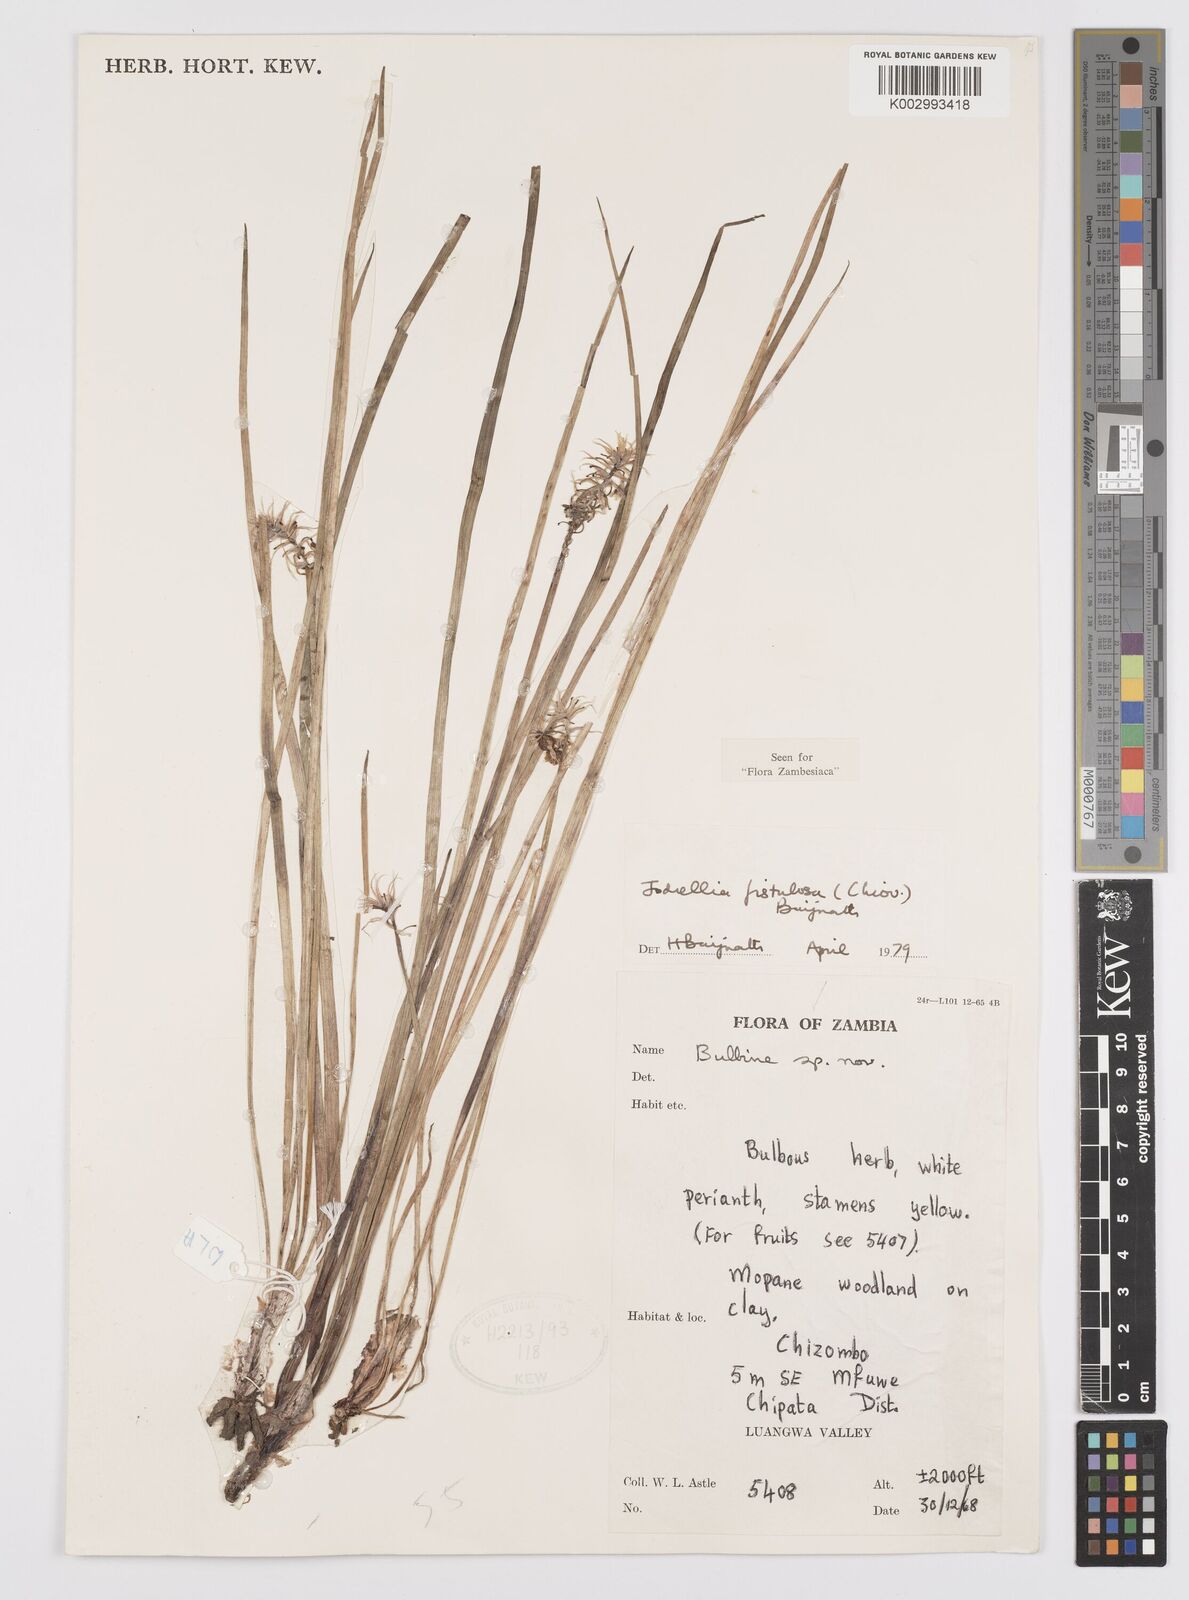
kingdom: Plantae
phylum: Tracheophyta
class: Liliopsida
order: Asparagales
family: Asphodelaceae
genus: Bulbine
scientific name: Bulbine fistulosa
